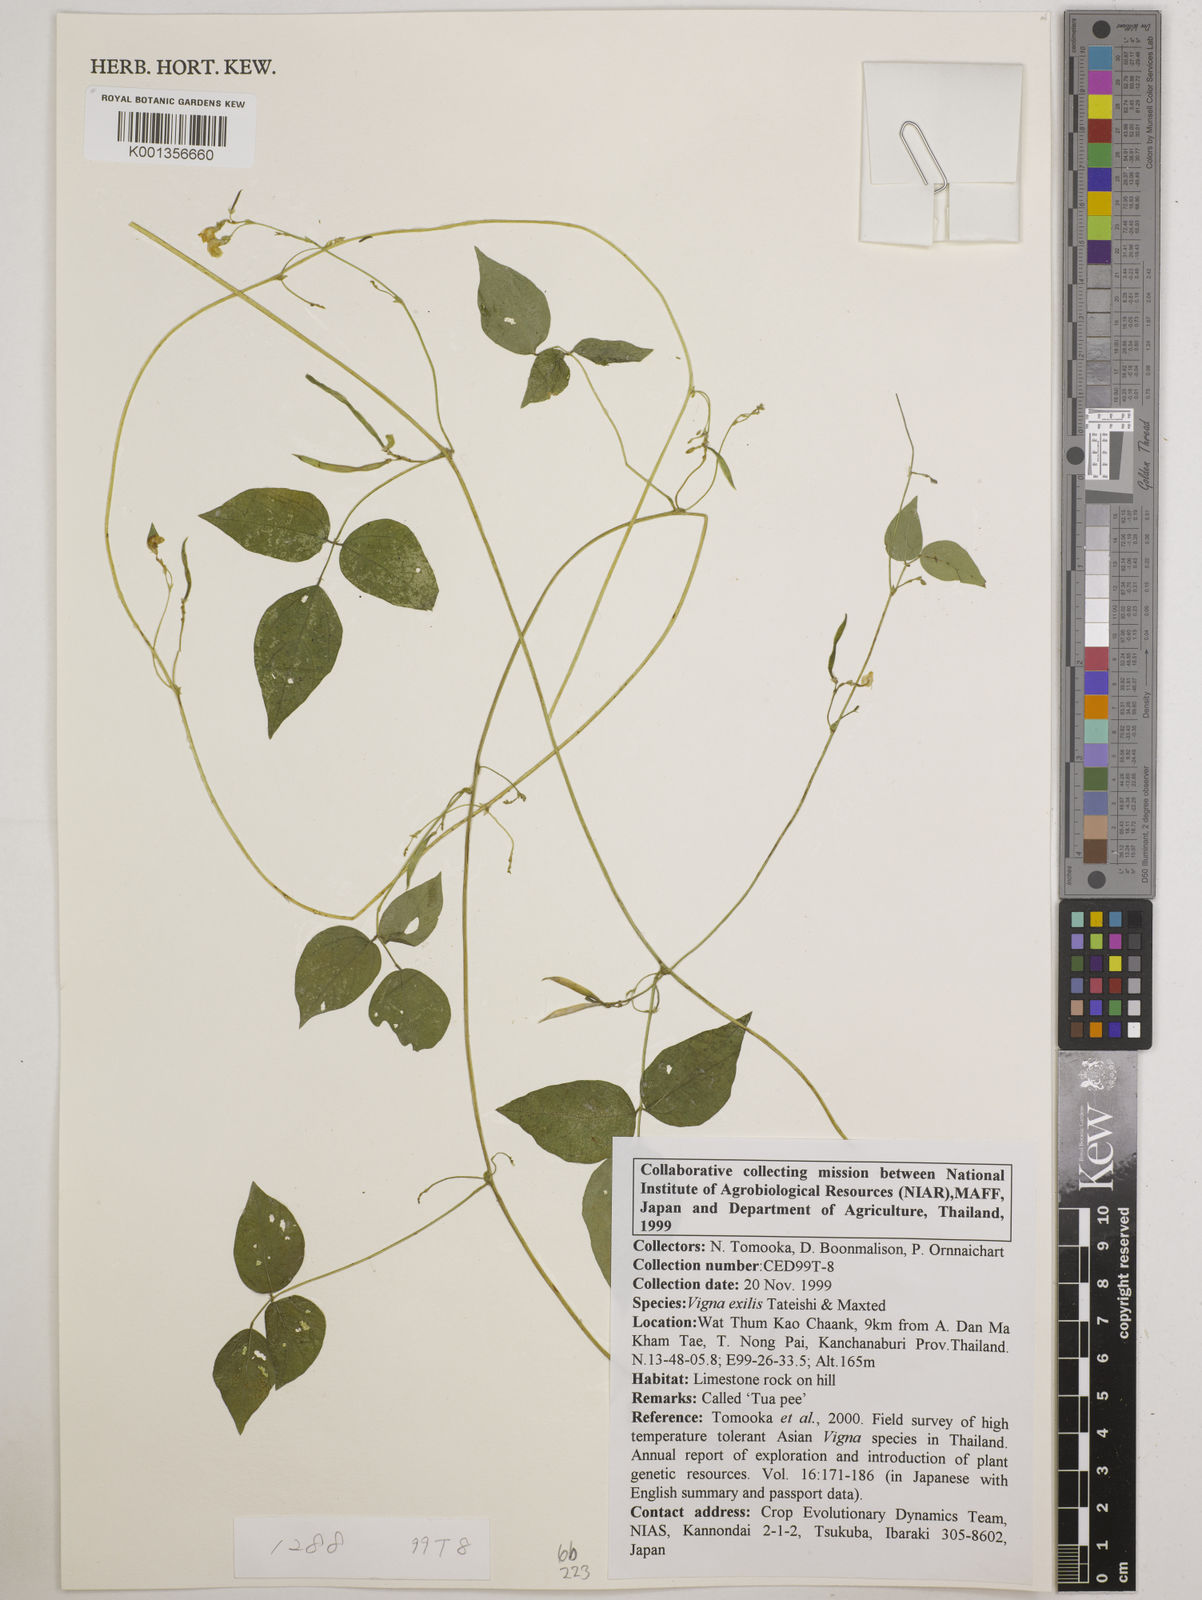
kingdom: Plantae
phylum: Tracheophyta
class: Magnoliopsida
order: Fabales
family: Fabaceae
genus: Vigna
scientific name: Vigna
